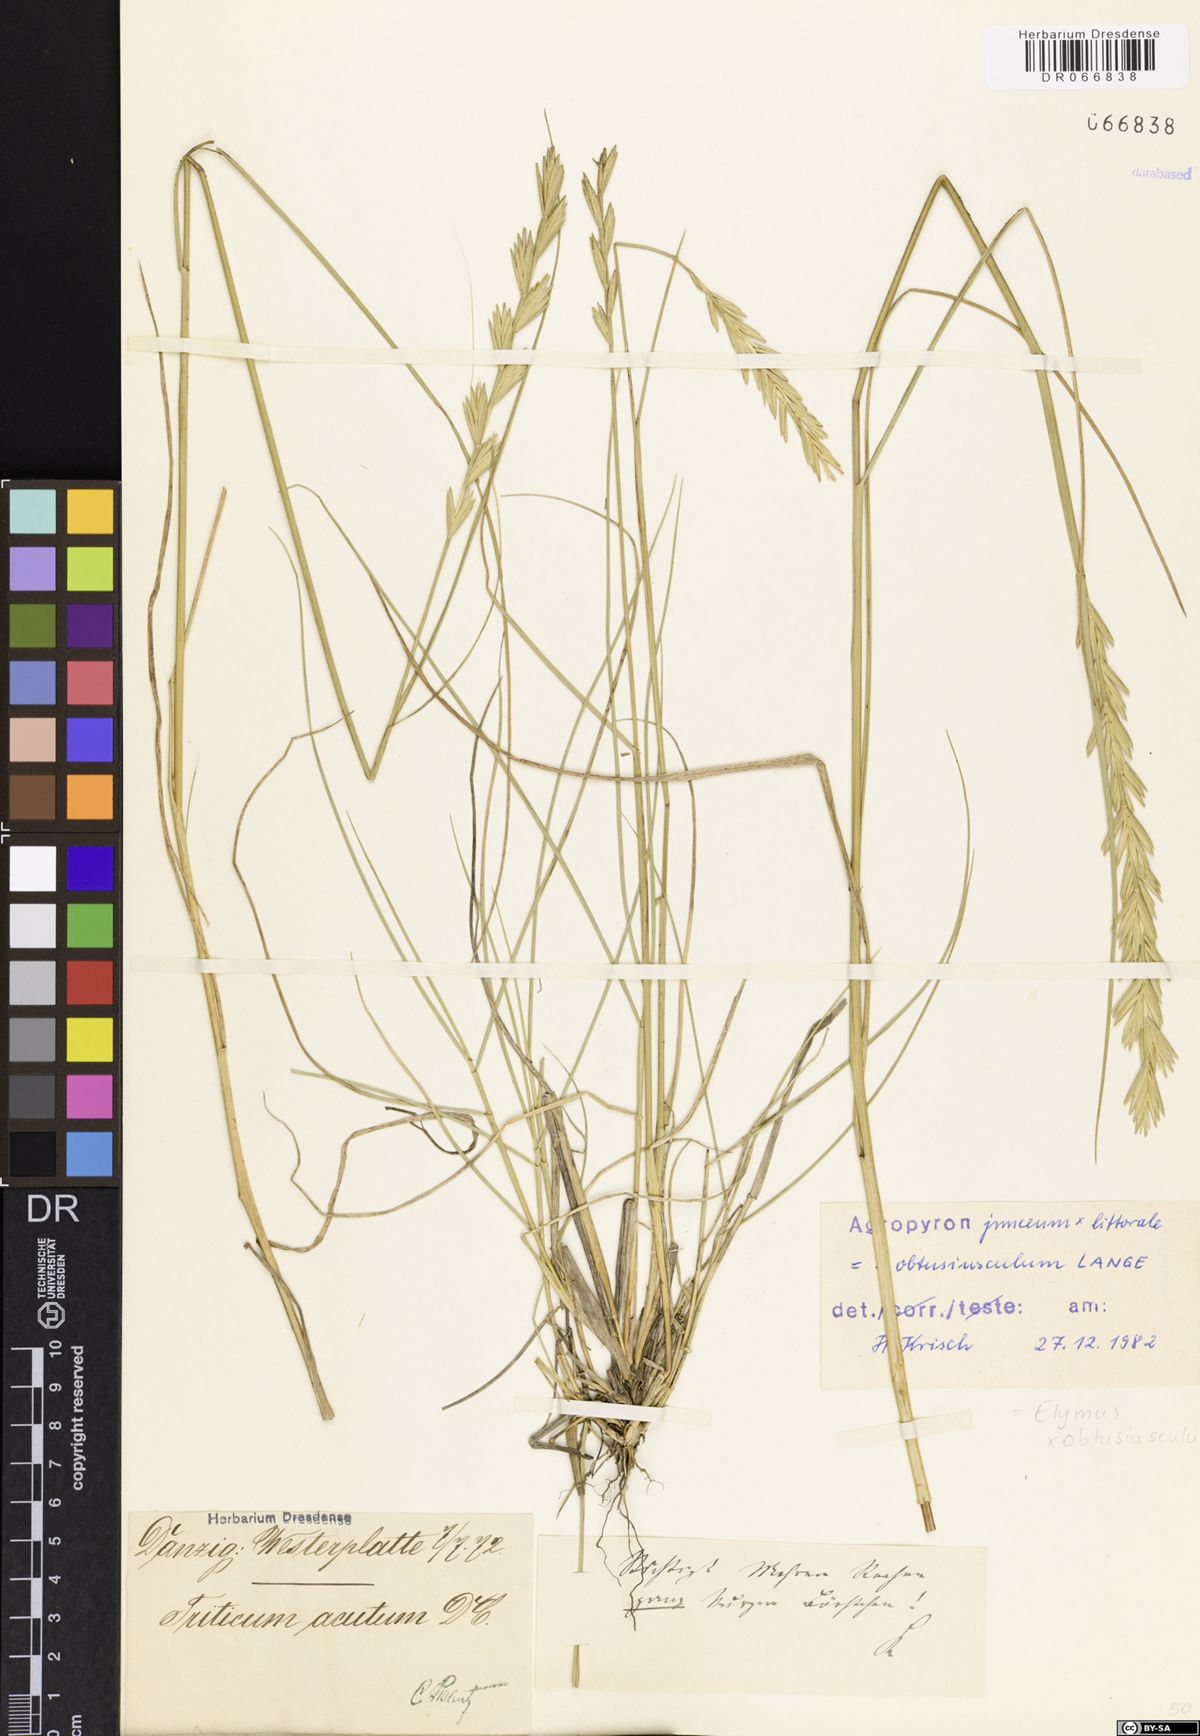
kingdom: Plantae
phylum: Tracheophyta
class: Liliopsida
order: Poales
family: Poaceae
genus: Thinoelymus
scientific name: Thinoelymus obtusiusculus
